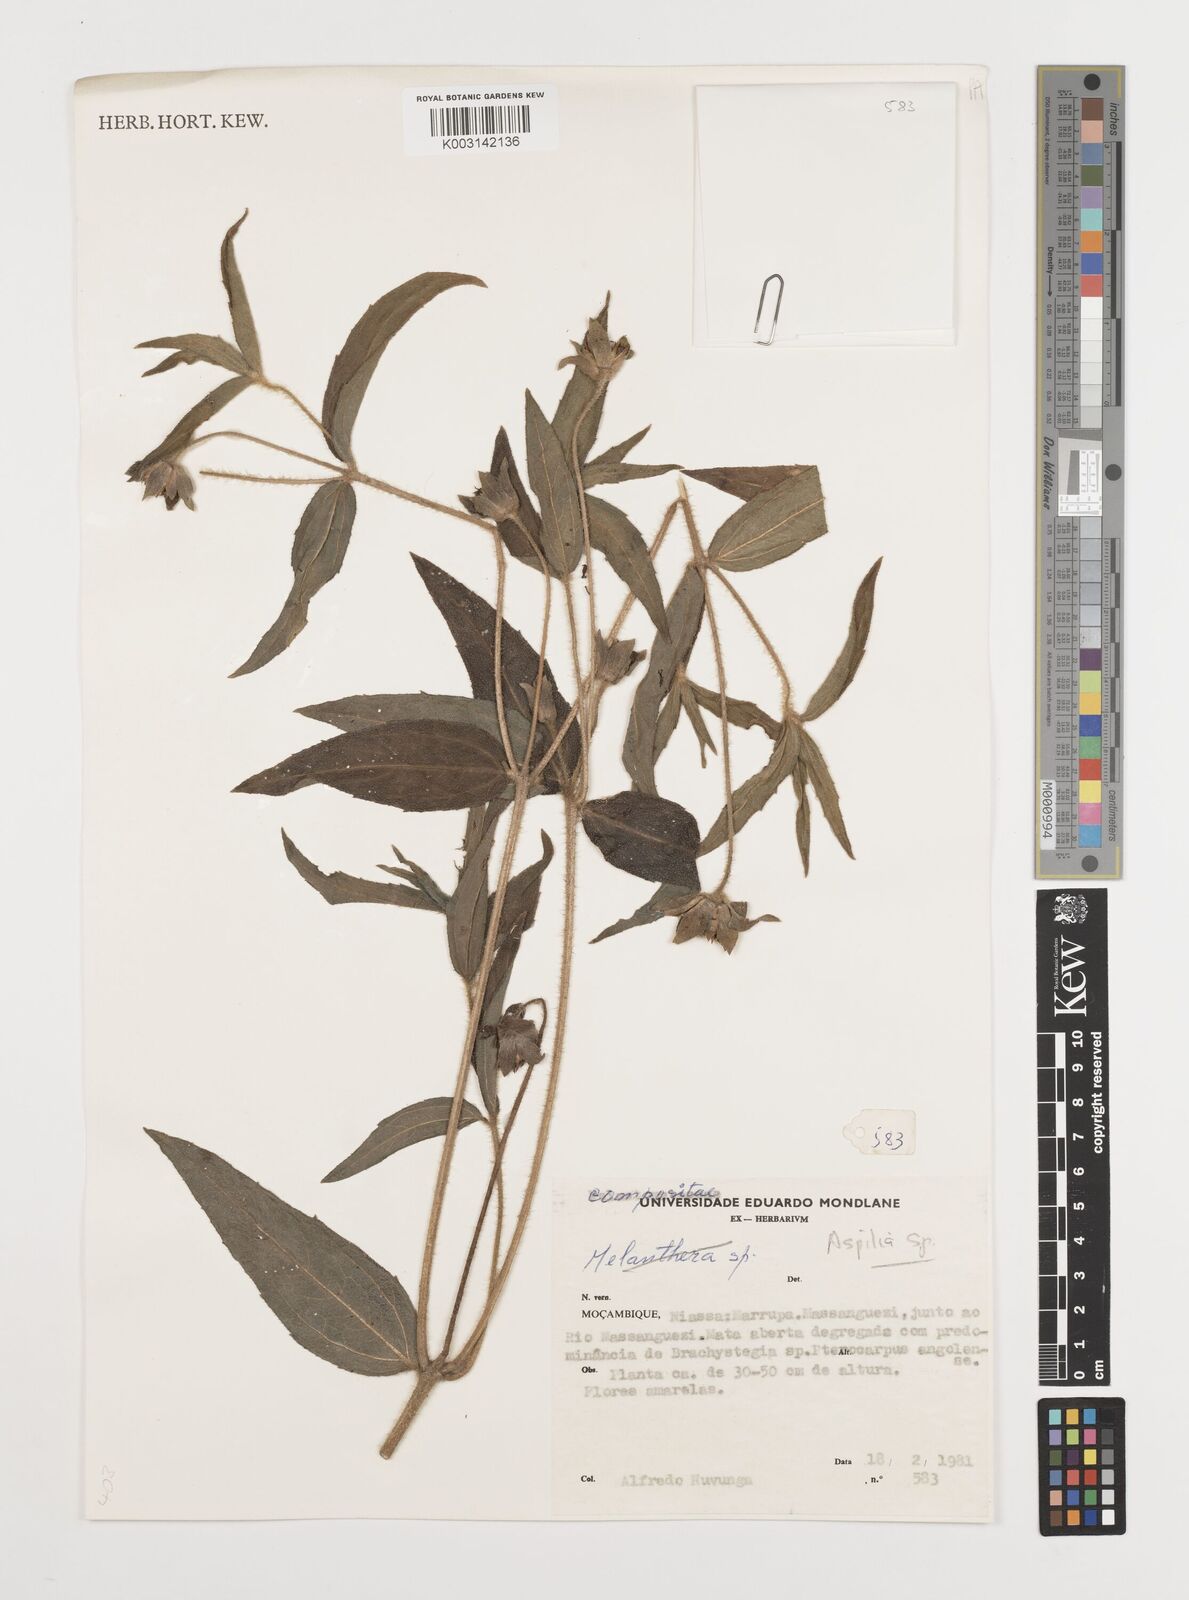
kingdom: Plantae
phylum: Tracheophyta
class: Magnoliopsida
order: Asterales
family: Asteraceae
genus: Aspilia
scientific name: Aspilia natalensis
